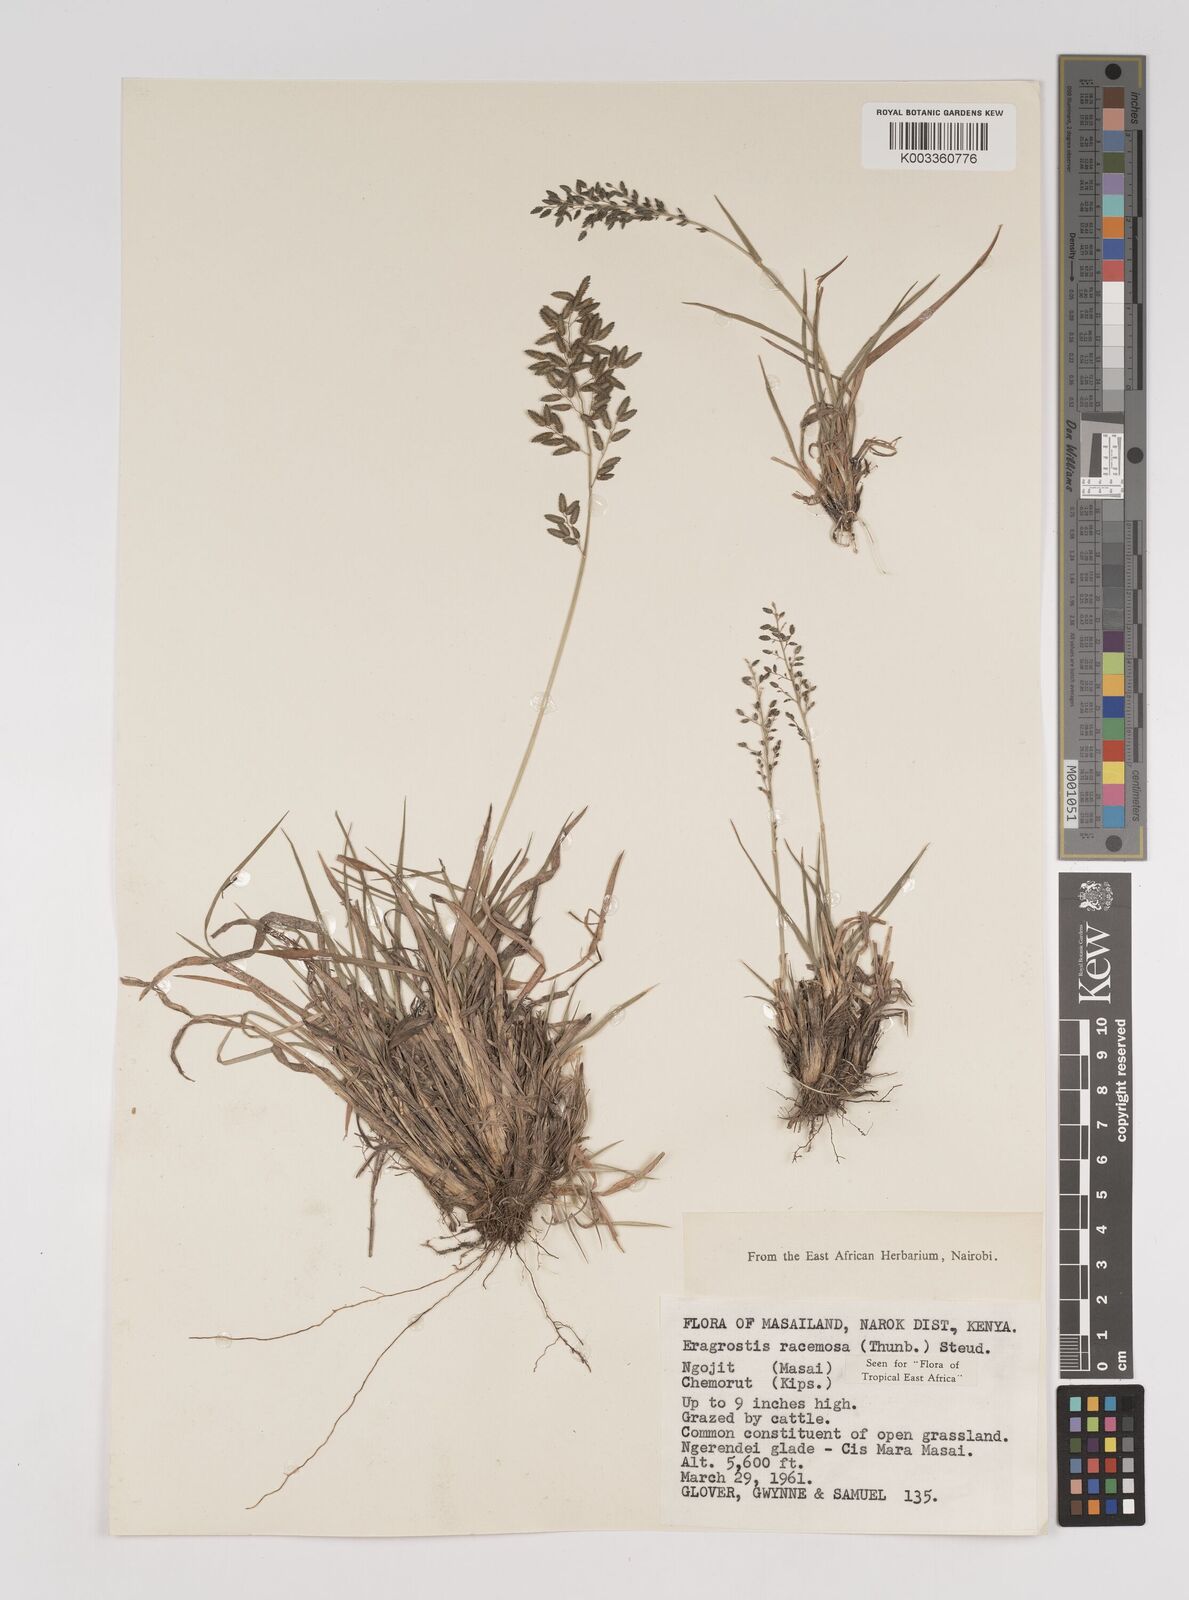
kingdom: Plantae
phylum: Tracheophyta
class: Liliopsida
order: Poales
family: Poaceae
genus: Eragrostis
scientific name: Eragrostis racemosa
